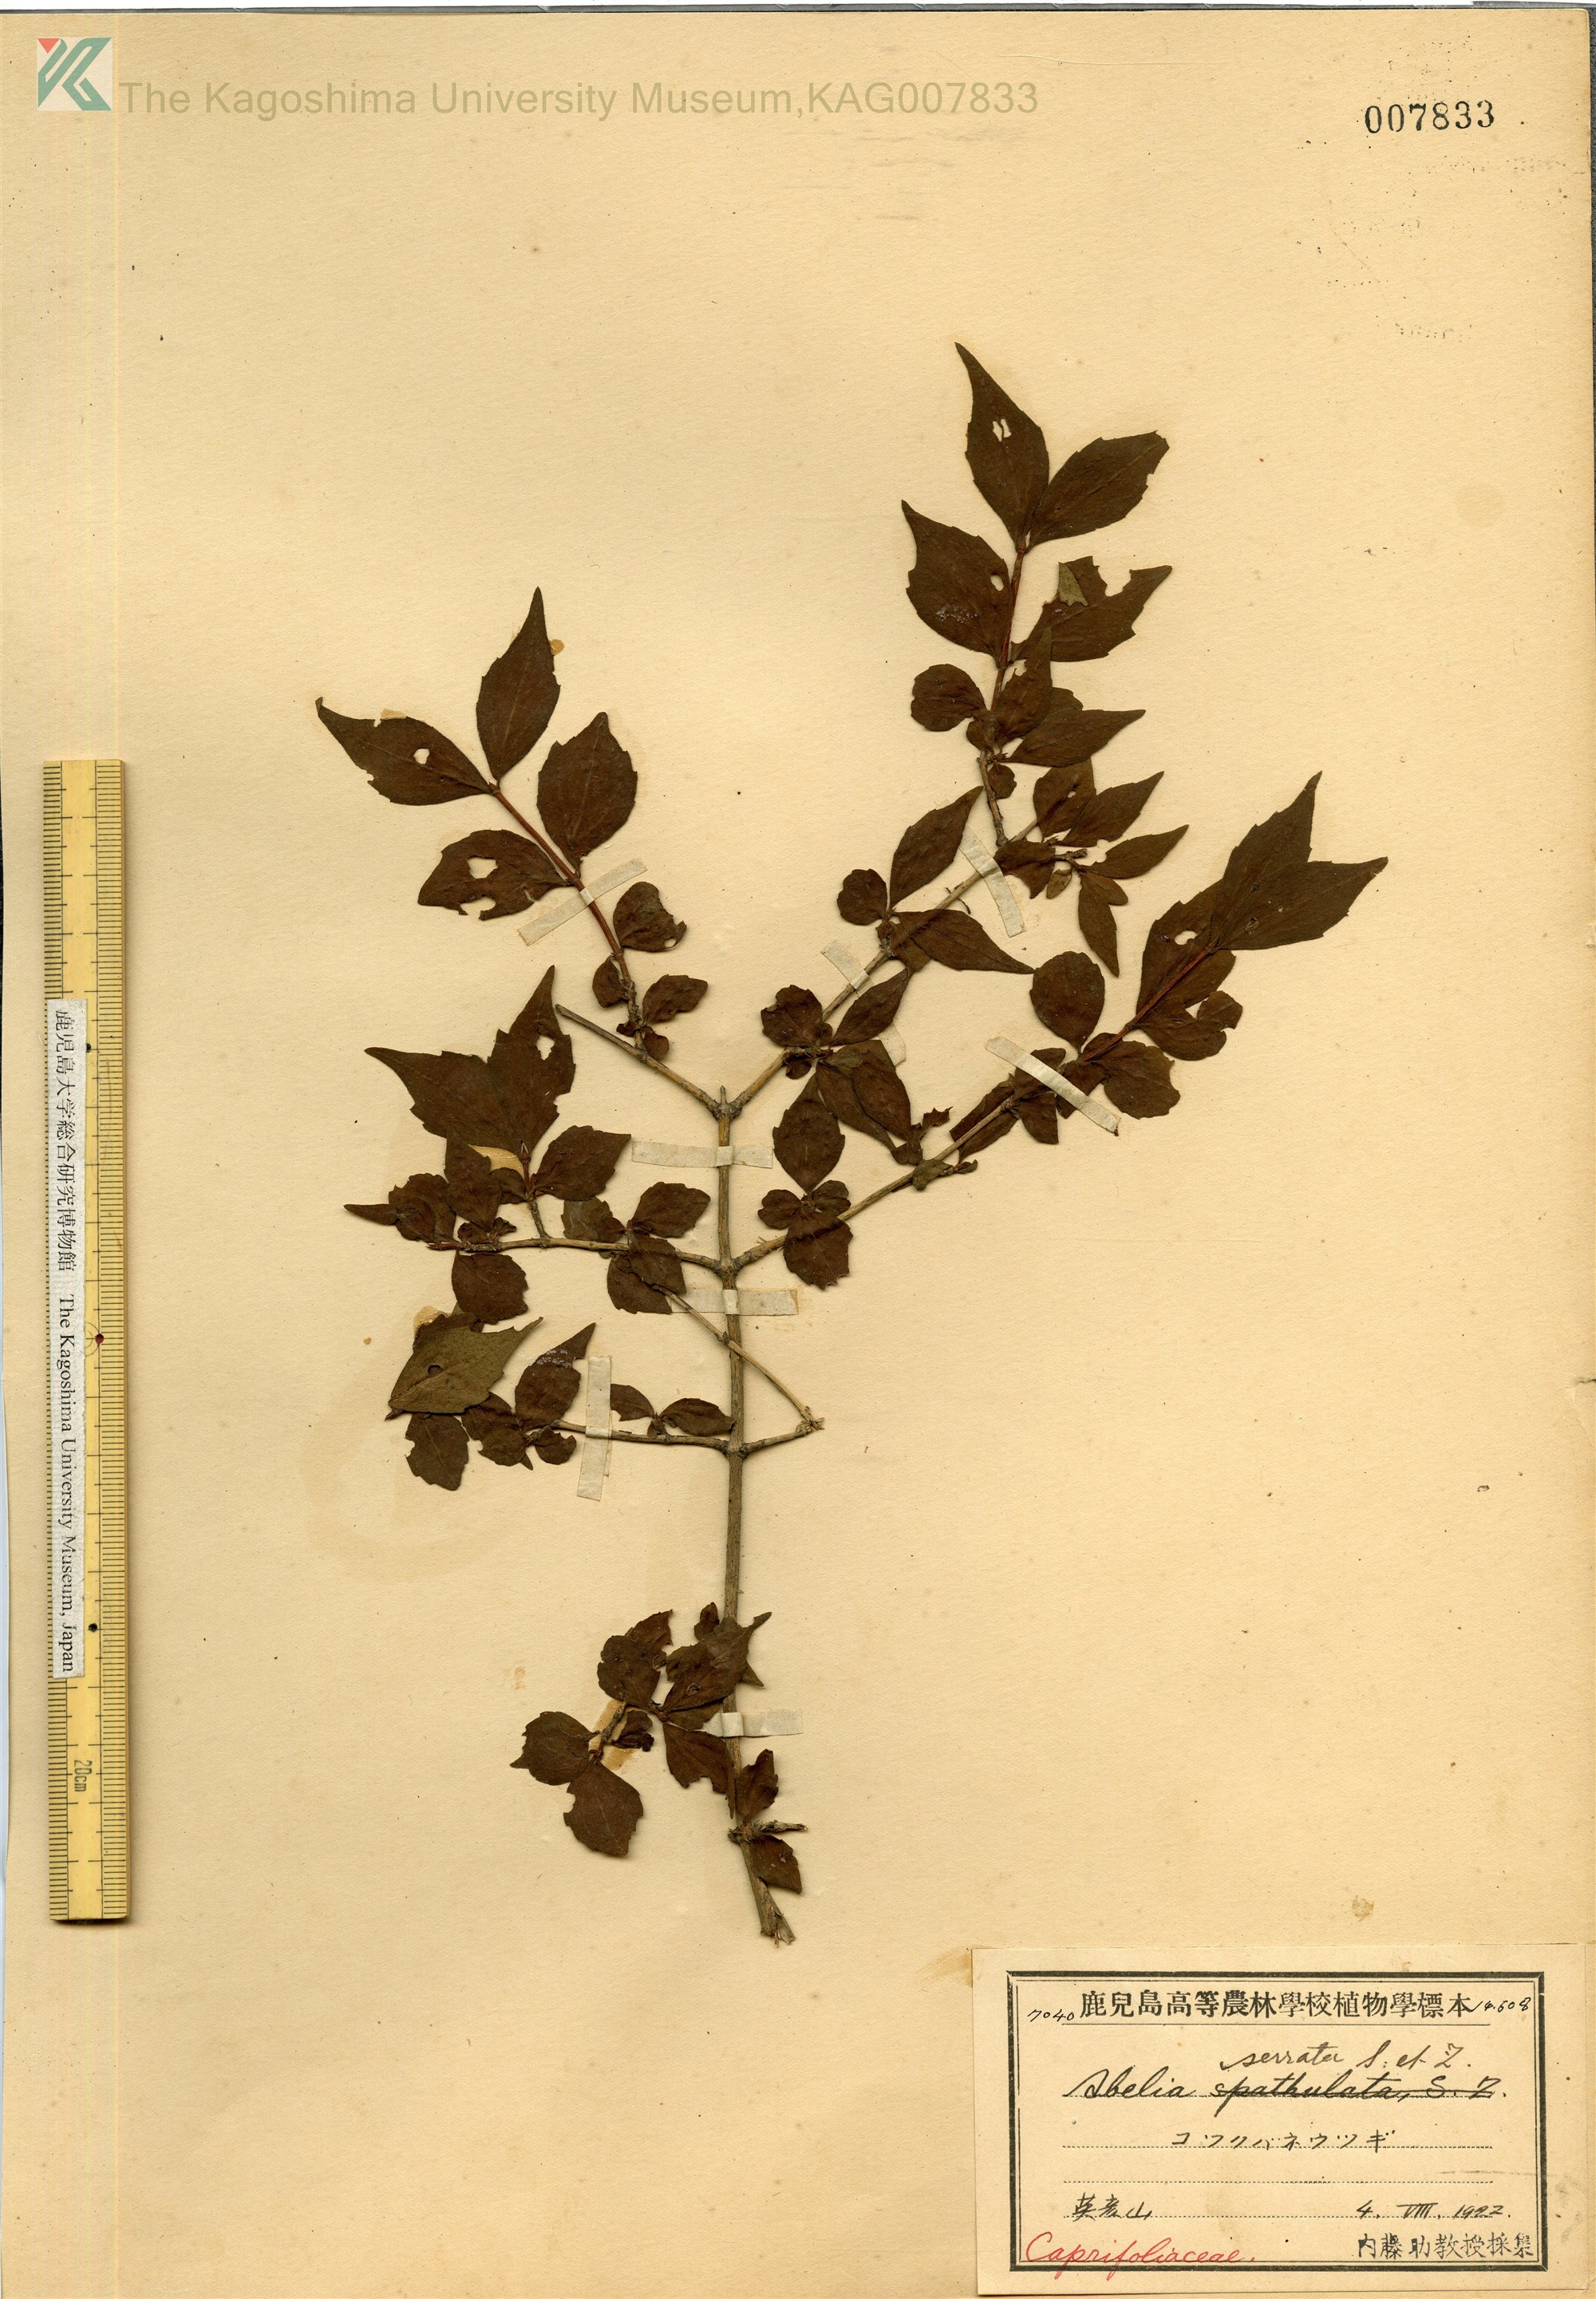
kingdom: Plantae
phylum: Tracheophyta
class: Magnoliopsida
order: Dipsacales
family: Caprifoliaceae
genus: Diabelia
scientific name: Diabelia serrata
